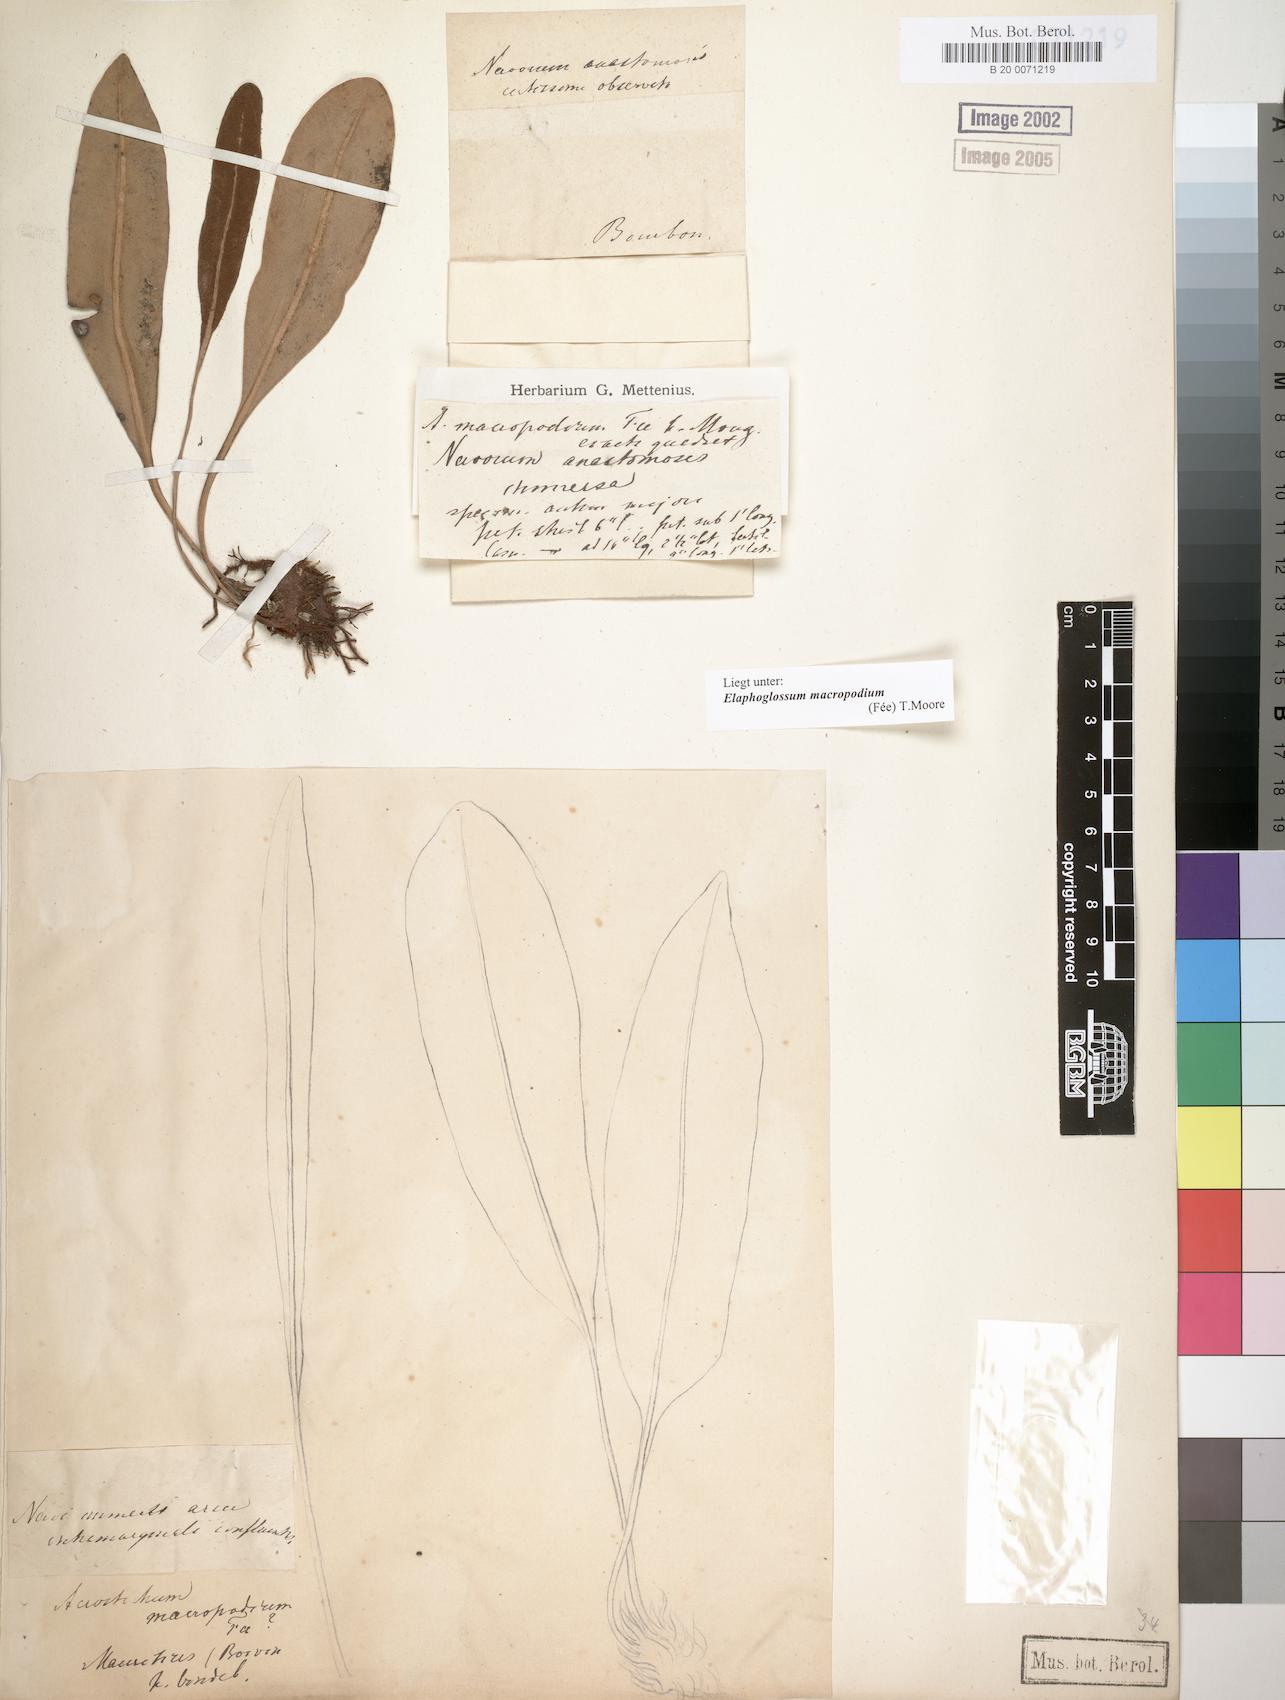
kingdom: Plantae
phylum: Tracheophyta
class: Polypodiopsida
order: Polypodiales
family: Dryopteridaceae
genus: Elaphoglossum
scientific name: Elaphoglossum macropodium
